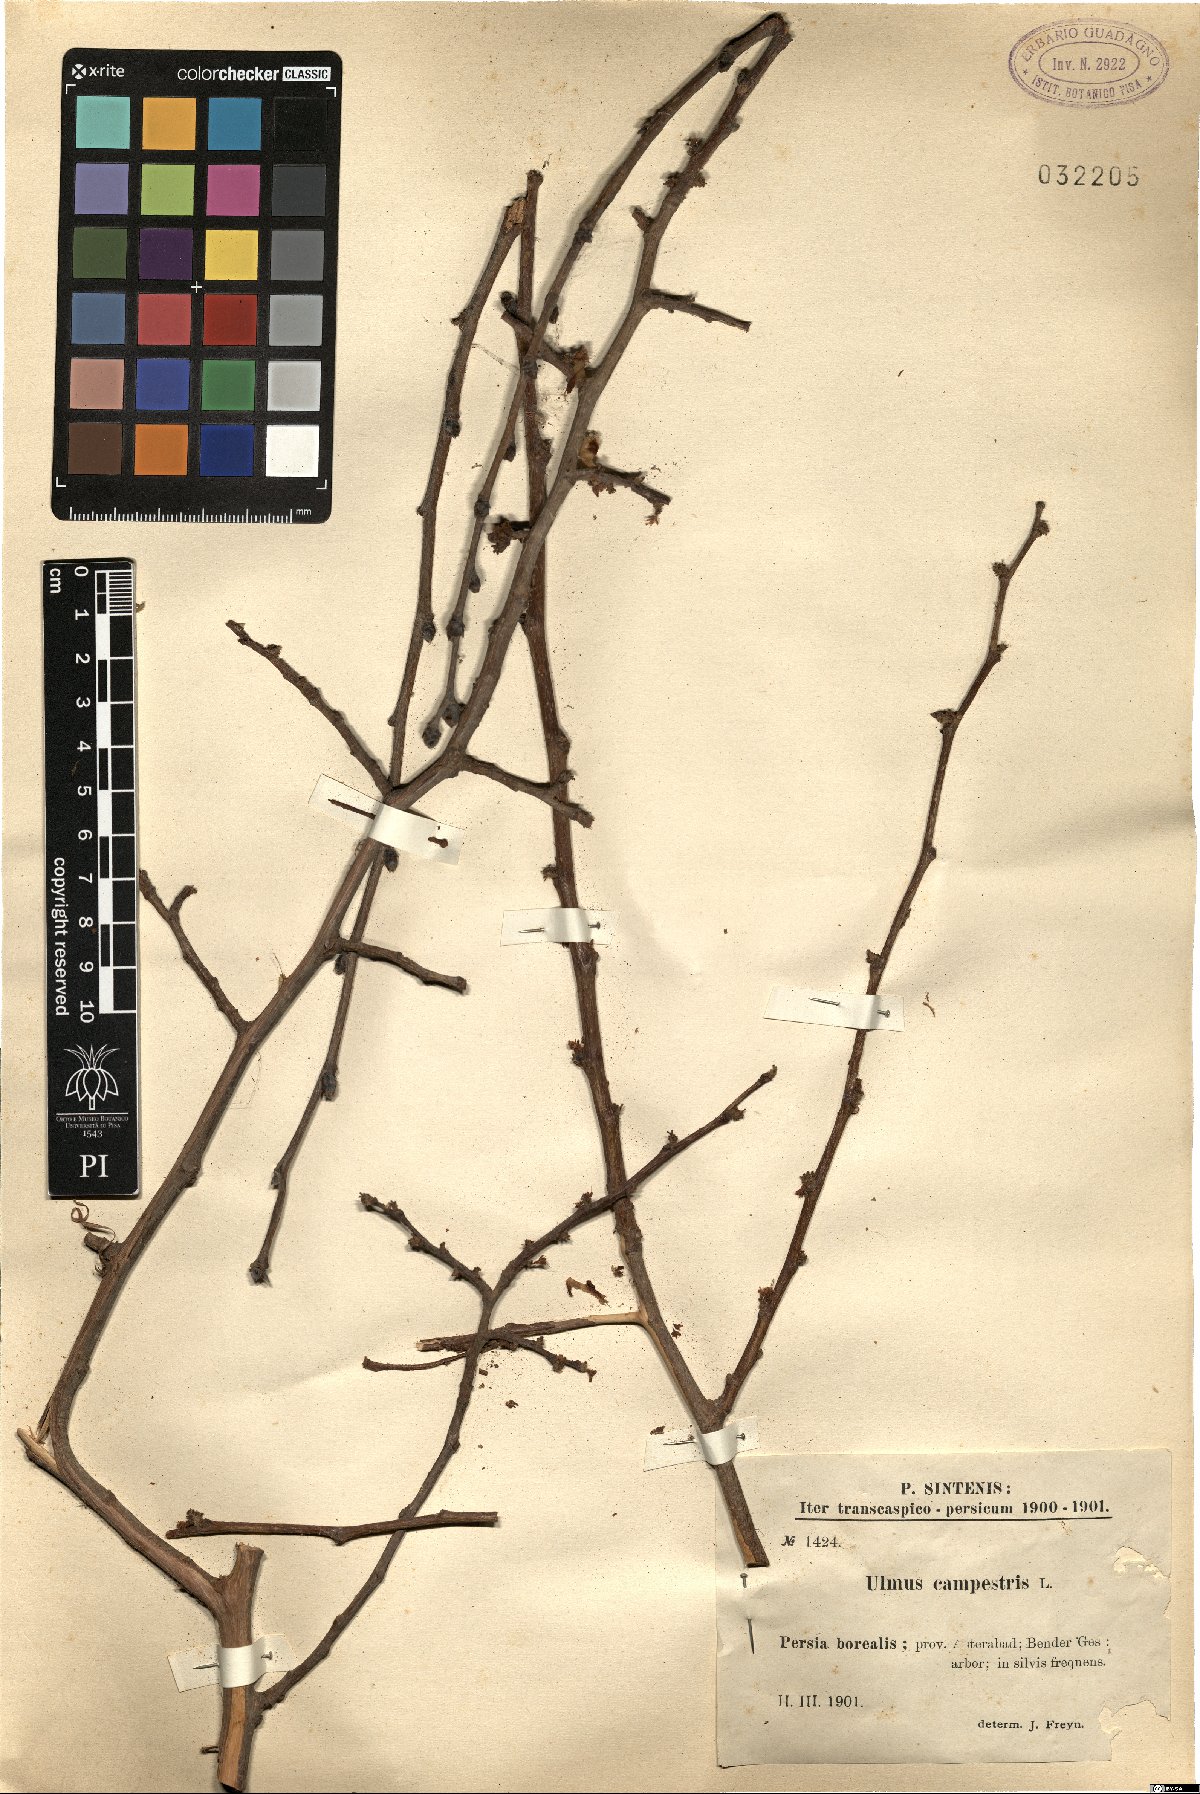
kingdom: Plantae
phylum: Tracheophyta
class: Magnoliopsida
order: Rosales
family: Ulmaceae
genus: Ulmus
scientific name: Ulmus glabra
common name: Wych elm
